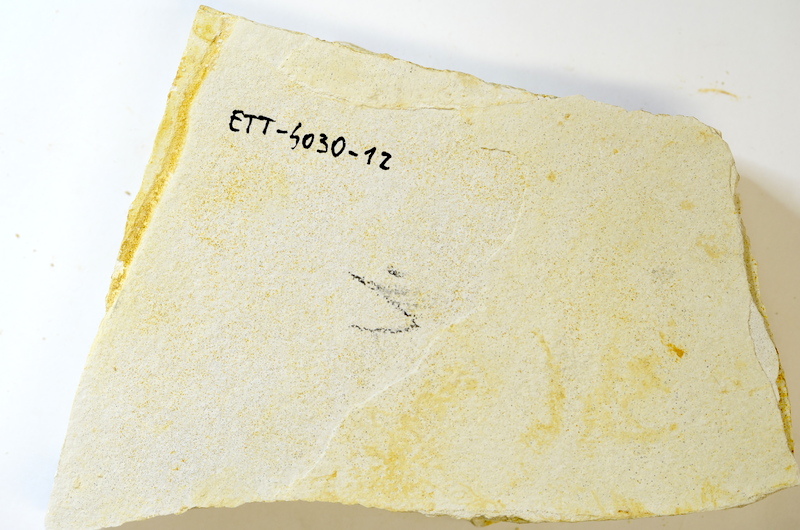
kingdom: Animalia
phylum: Chordata
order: Salmoniformes
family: Orthogonikleithridae
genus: Orthogonikleithrus
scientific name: Orthogonikleithrus hoelli
